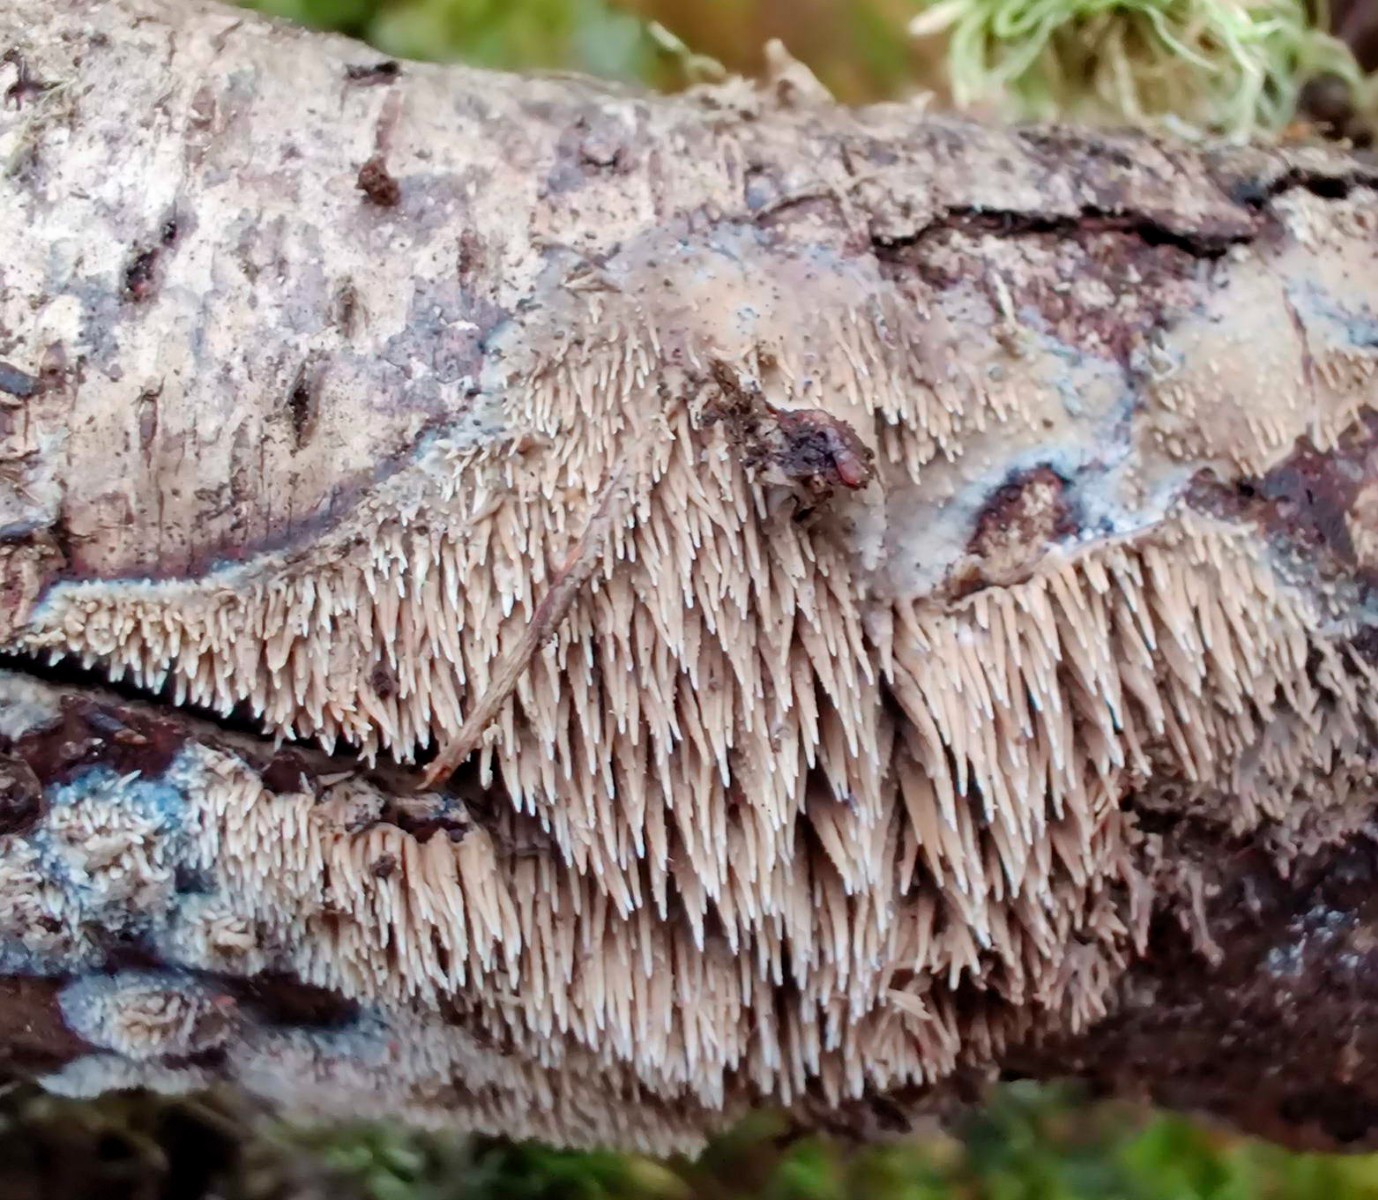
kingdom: Fungi
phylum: Basidiomycota
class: Agaricomycetes
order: Polyporales
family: Meruliaceae
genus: Mycoaciella
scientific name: Mycoaciella bispora
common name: stalaktit-vokspig
